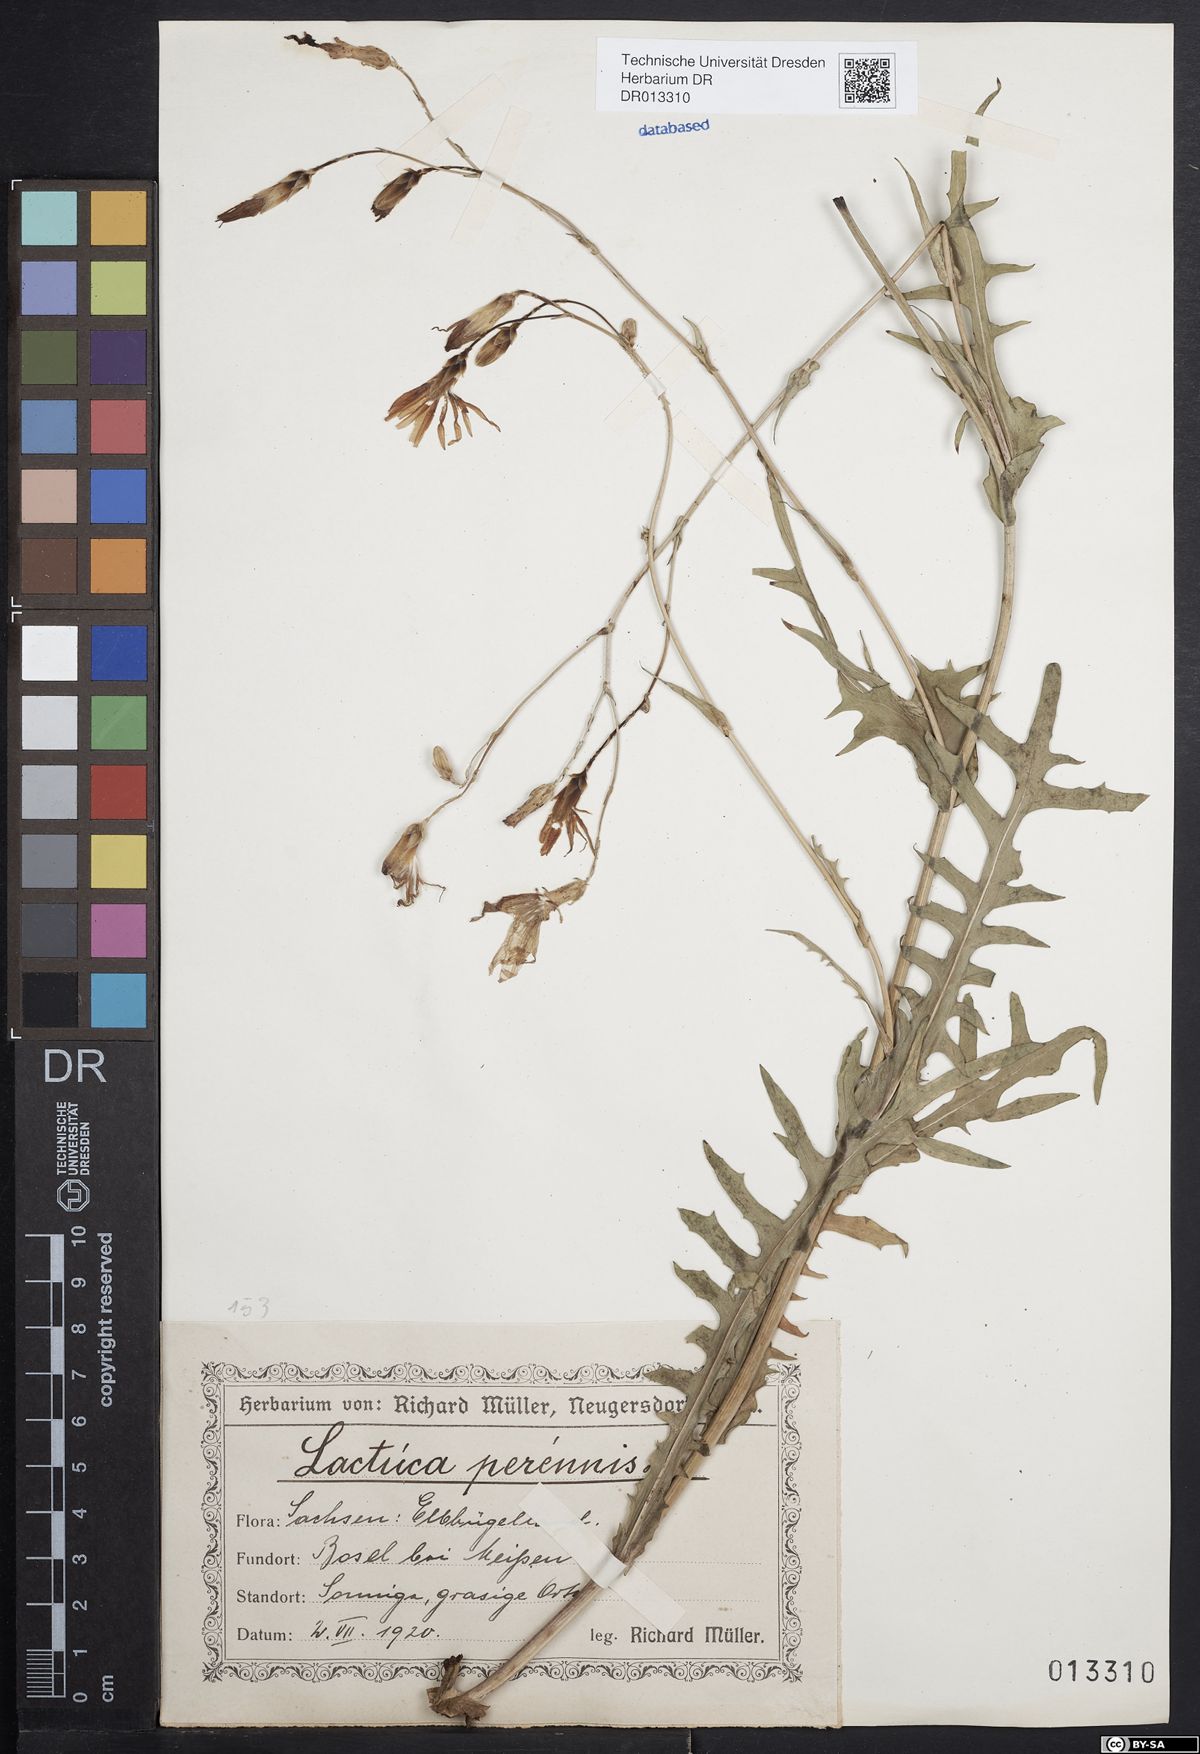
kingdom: Plantae
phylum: Tracheophyta
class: Magnoliopsida
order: Asterales
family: Asteraceae
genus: Lactuca
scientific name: Lactuca perennis
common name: Mountain lettuce
